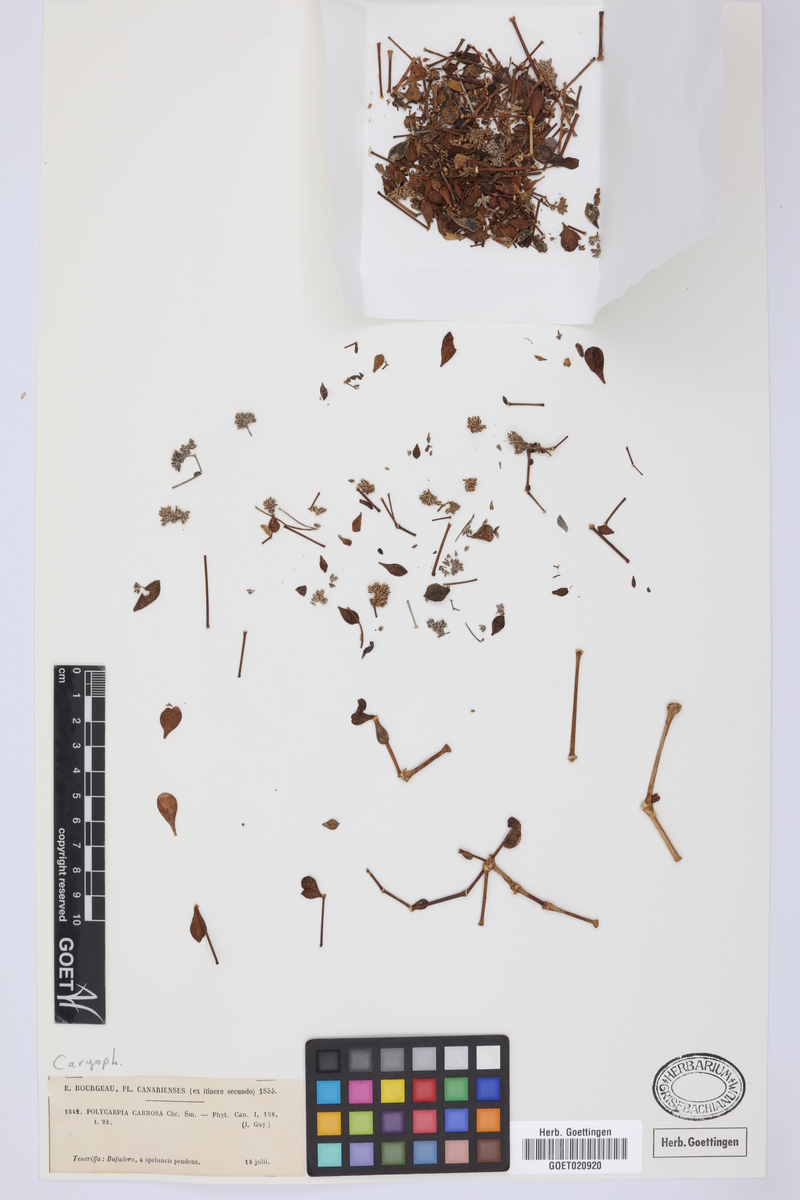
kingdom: Plantae
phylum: Tracheophyta
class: Magnoliopsida
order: Caryophyllales
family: Caryophyllaceae
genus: Polycarpaea
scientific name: Polycarpaea carnosa
